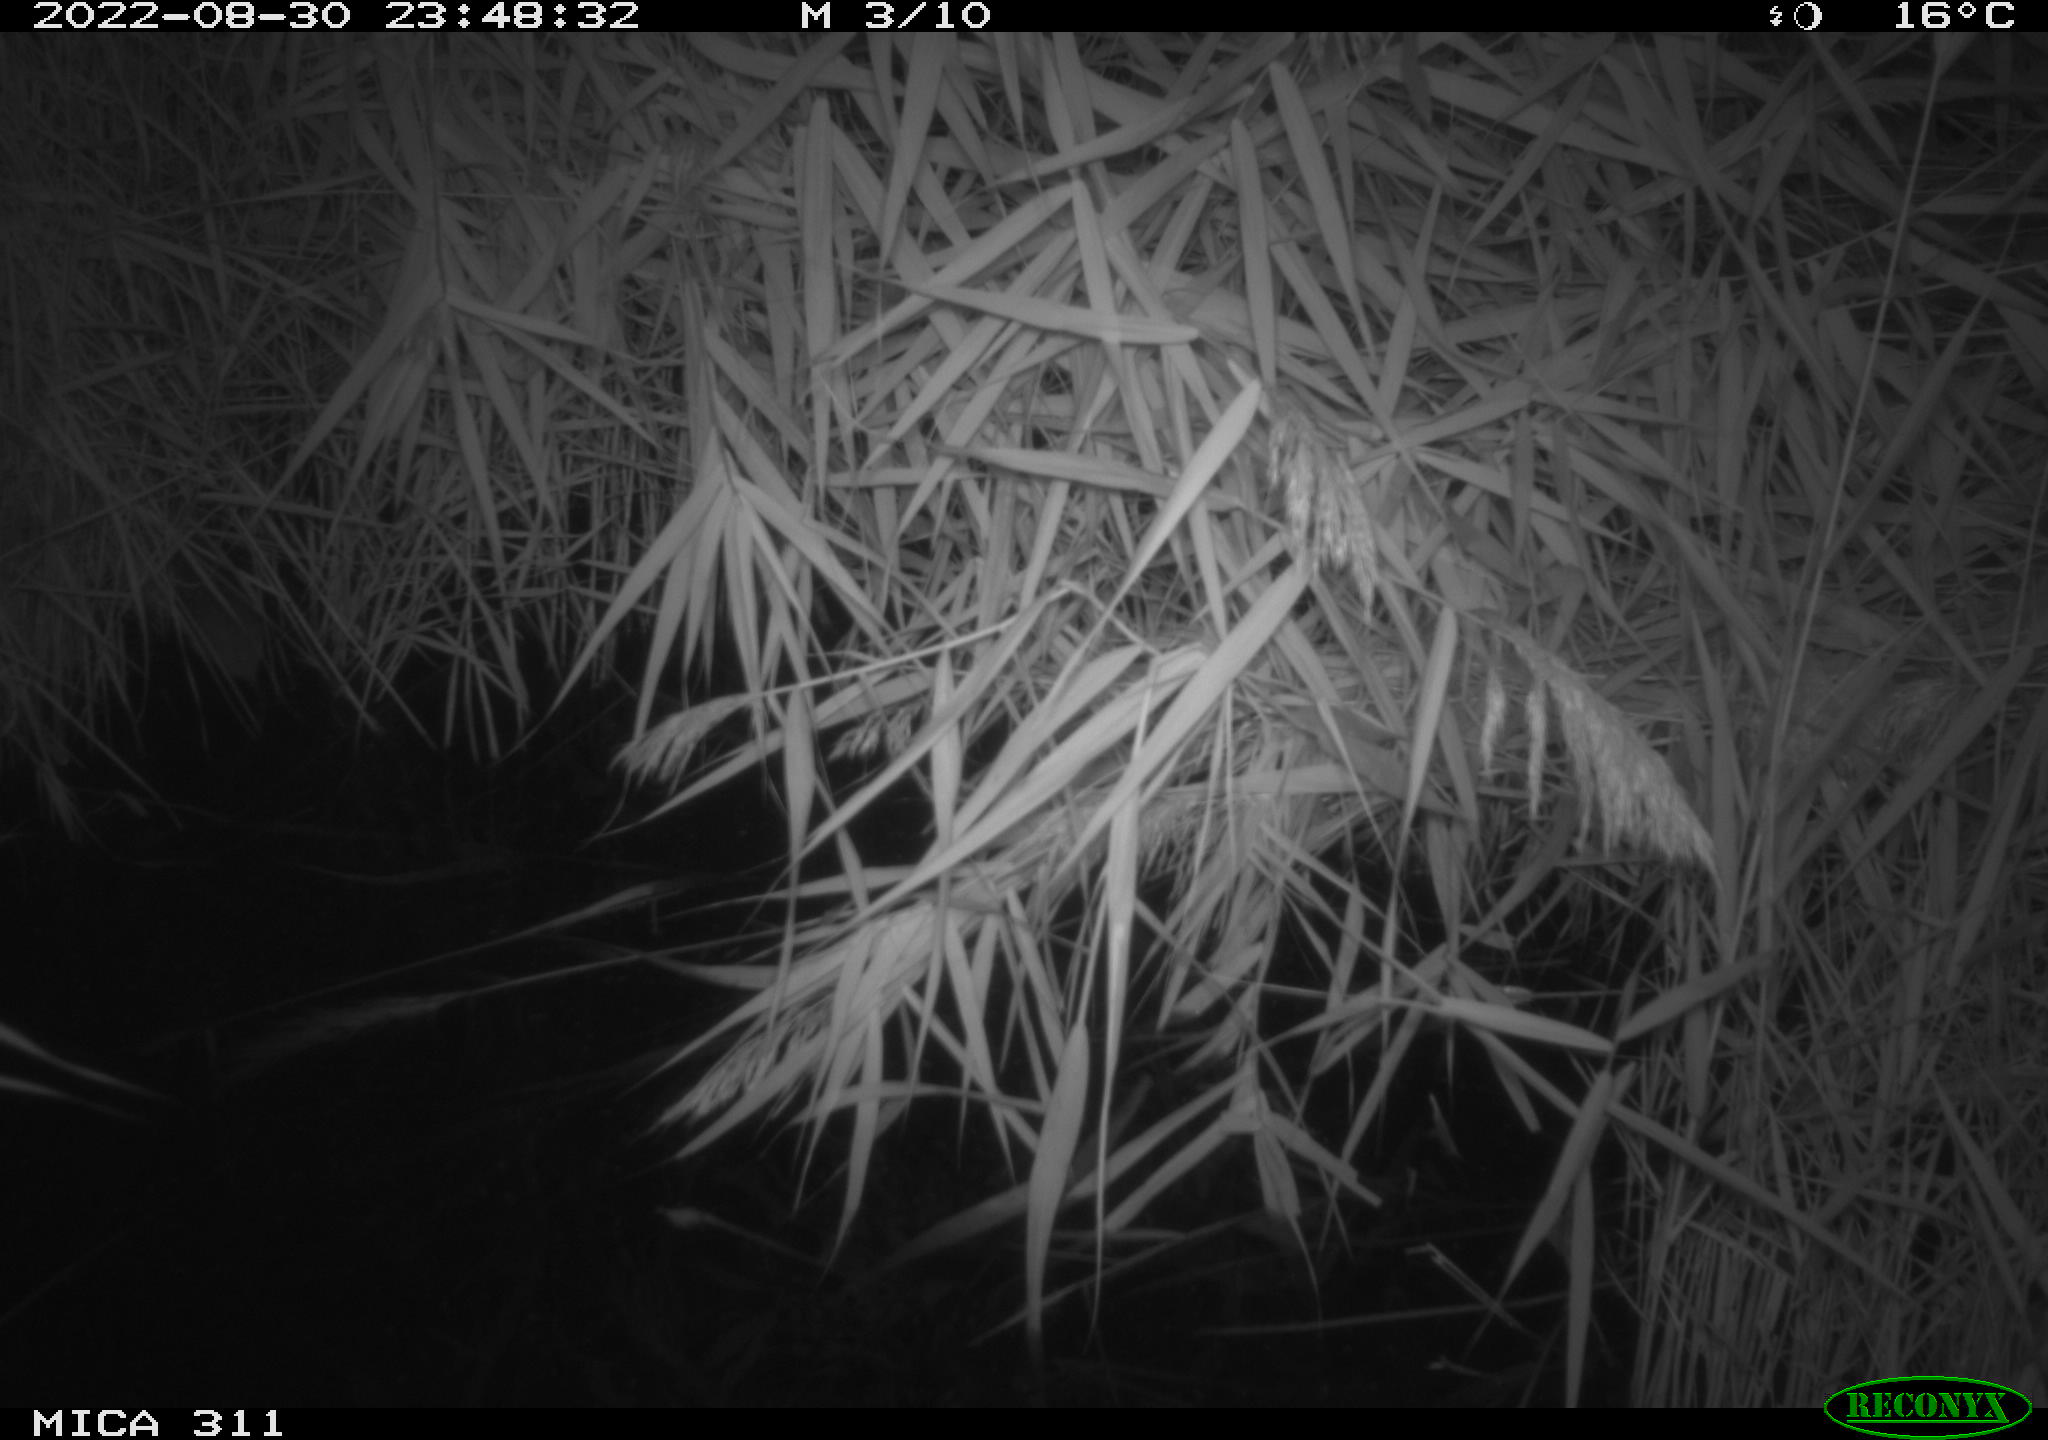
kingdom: Animalia
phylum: Chordata
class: Mammalia
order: Rodentia
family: Muridae
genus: Rattus
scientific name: Rattus norvegicus
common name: Brown rat
